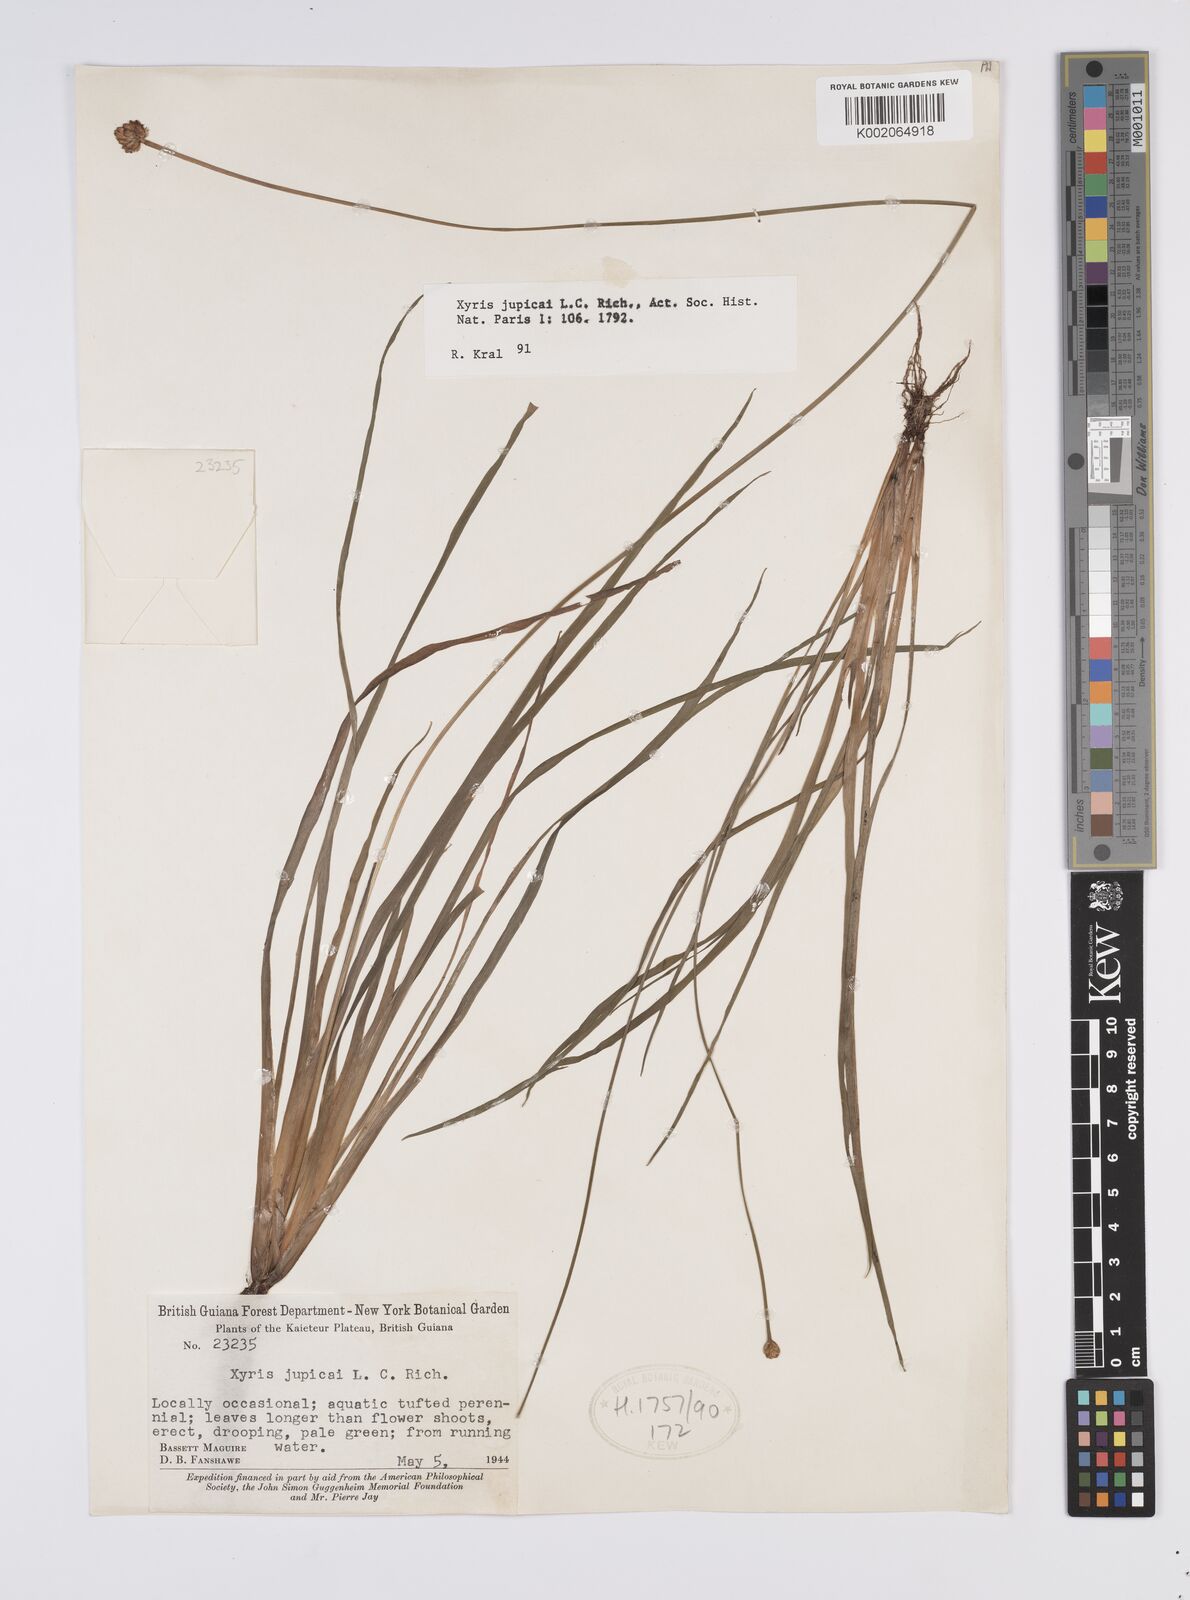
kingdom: Plantae
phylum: Tracheophyta
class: Liliopsida
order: Poales
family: Xyridaceae
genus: Xyris
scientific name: Xyris jupicai
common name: Richard's yelloweyed grass
